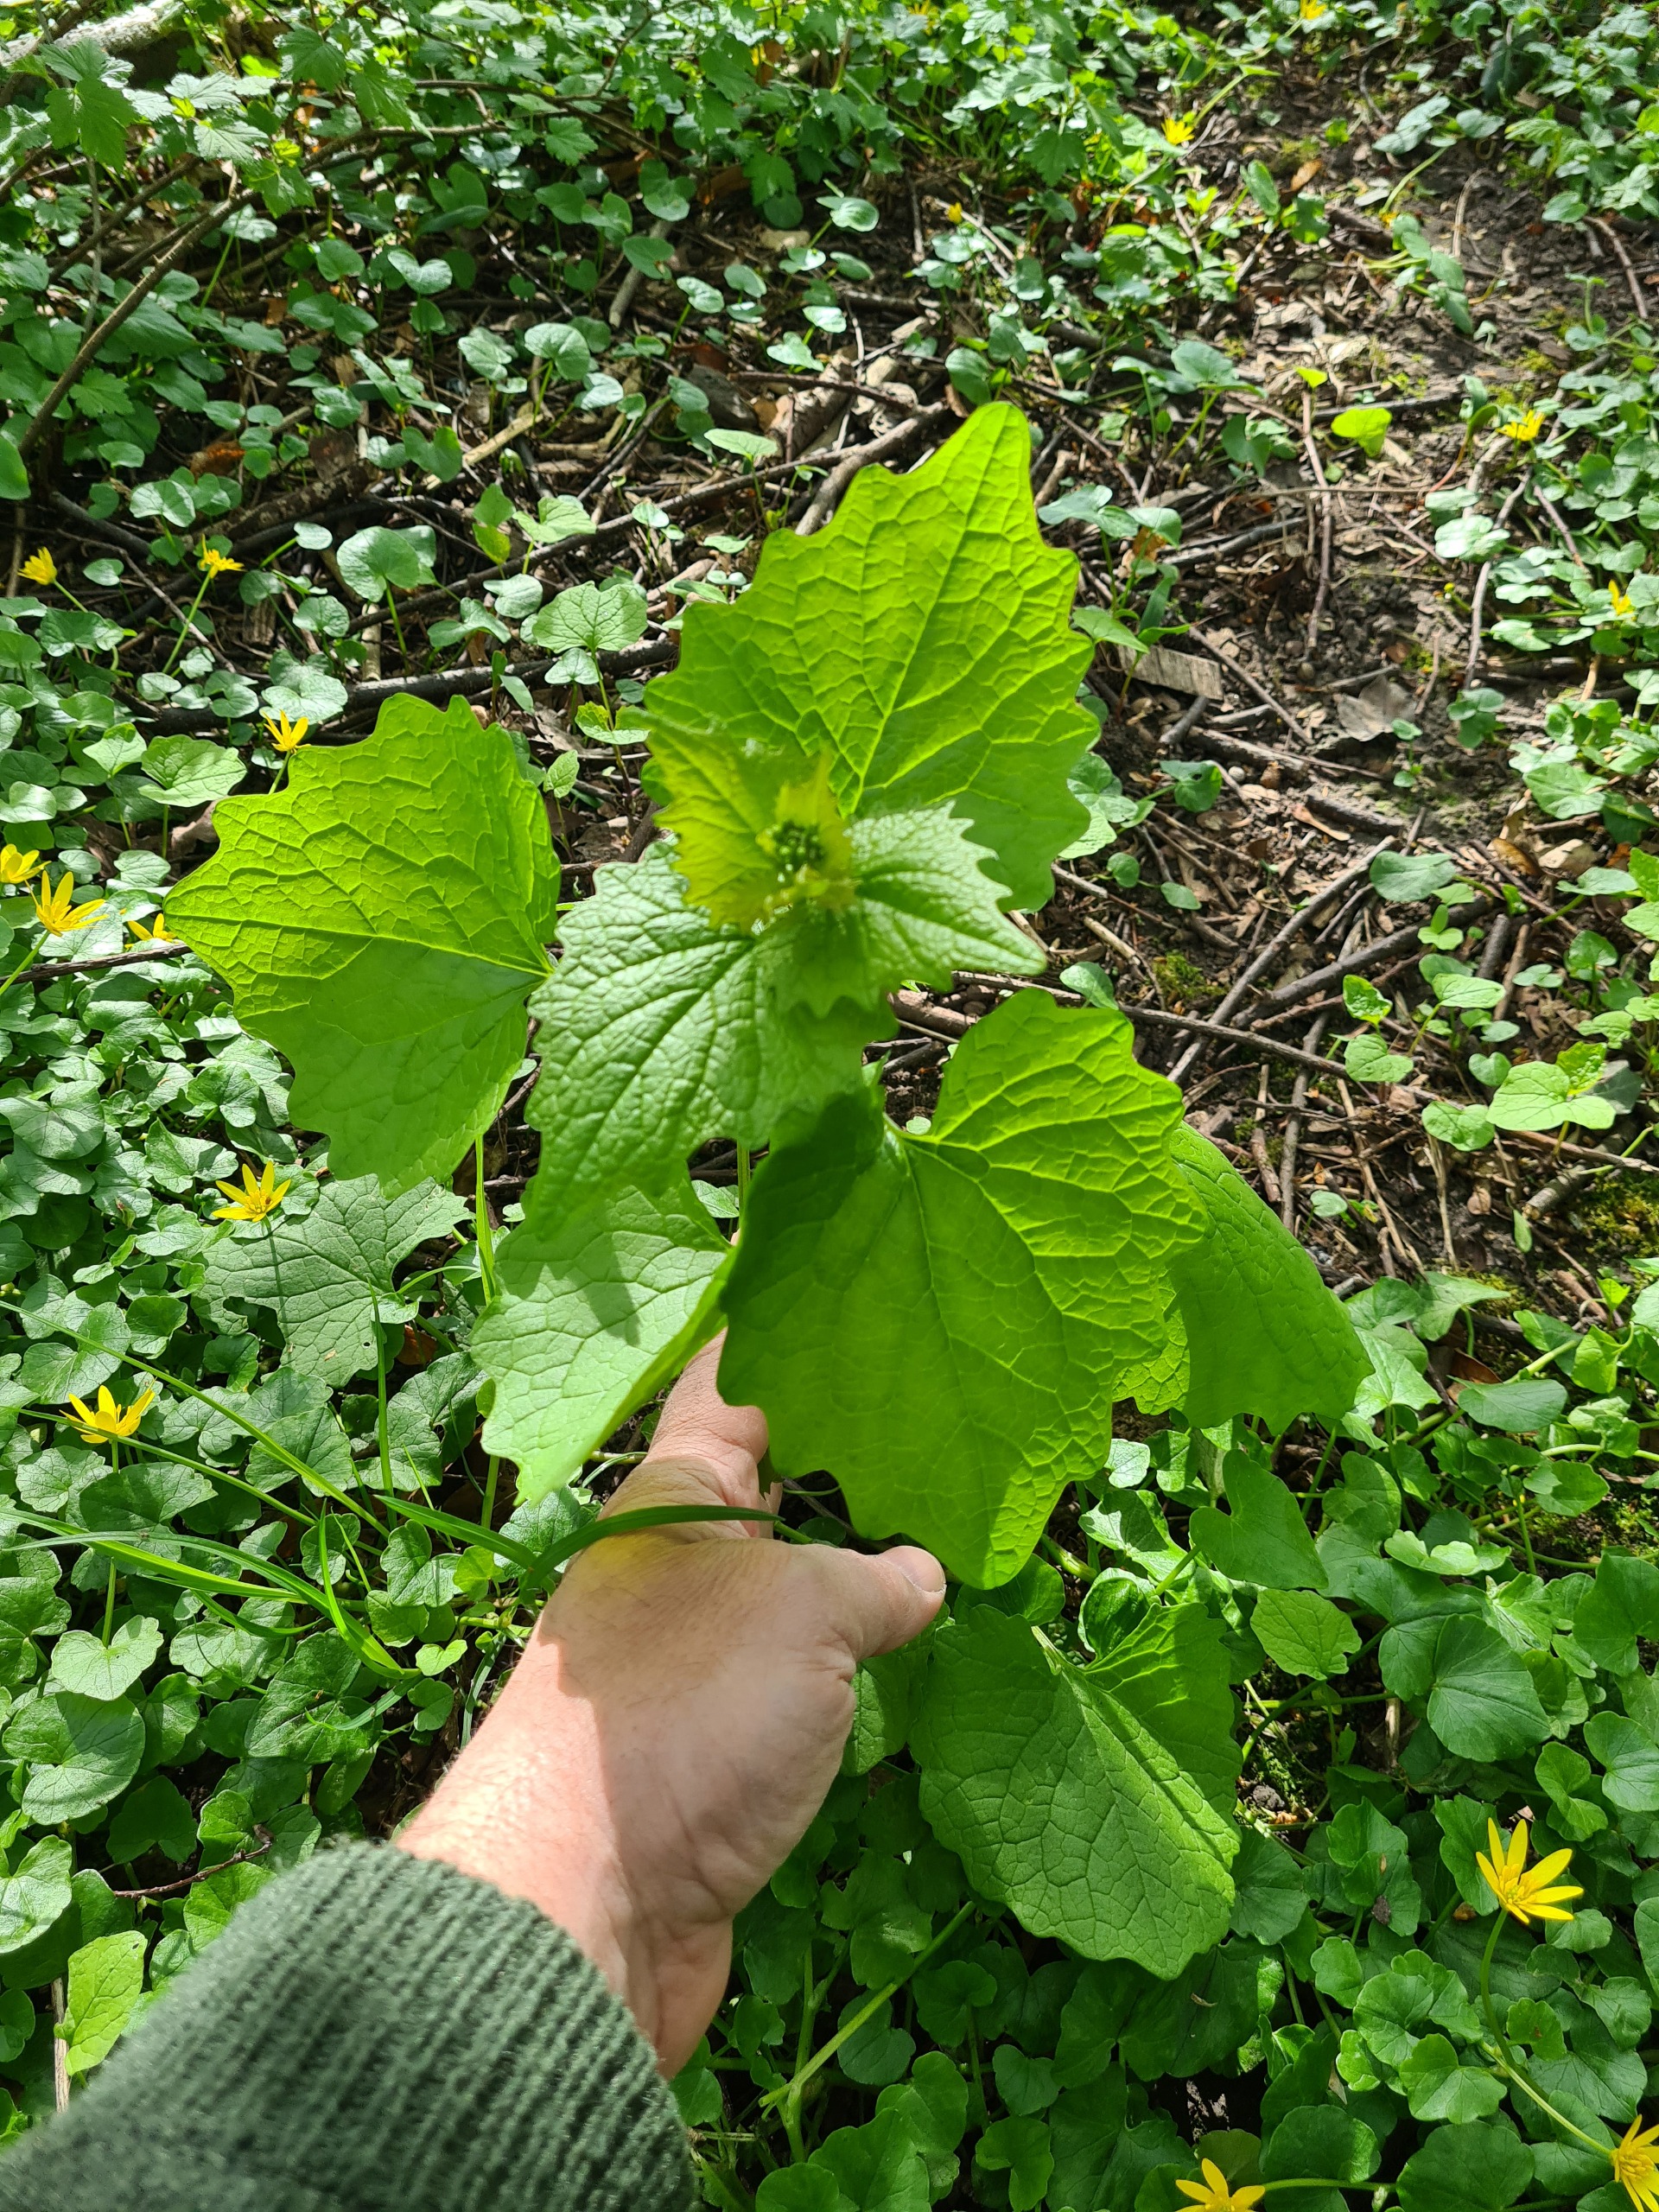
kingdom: Plantae
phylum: Tracheophyta
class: Magnoliopsida
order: Brassicales
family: Brassicaceae
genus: Alliaria
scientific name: Alliaria petiolata
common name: Løgkarse
